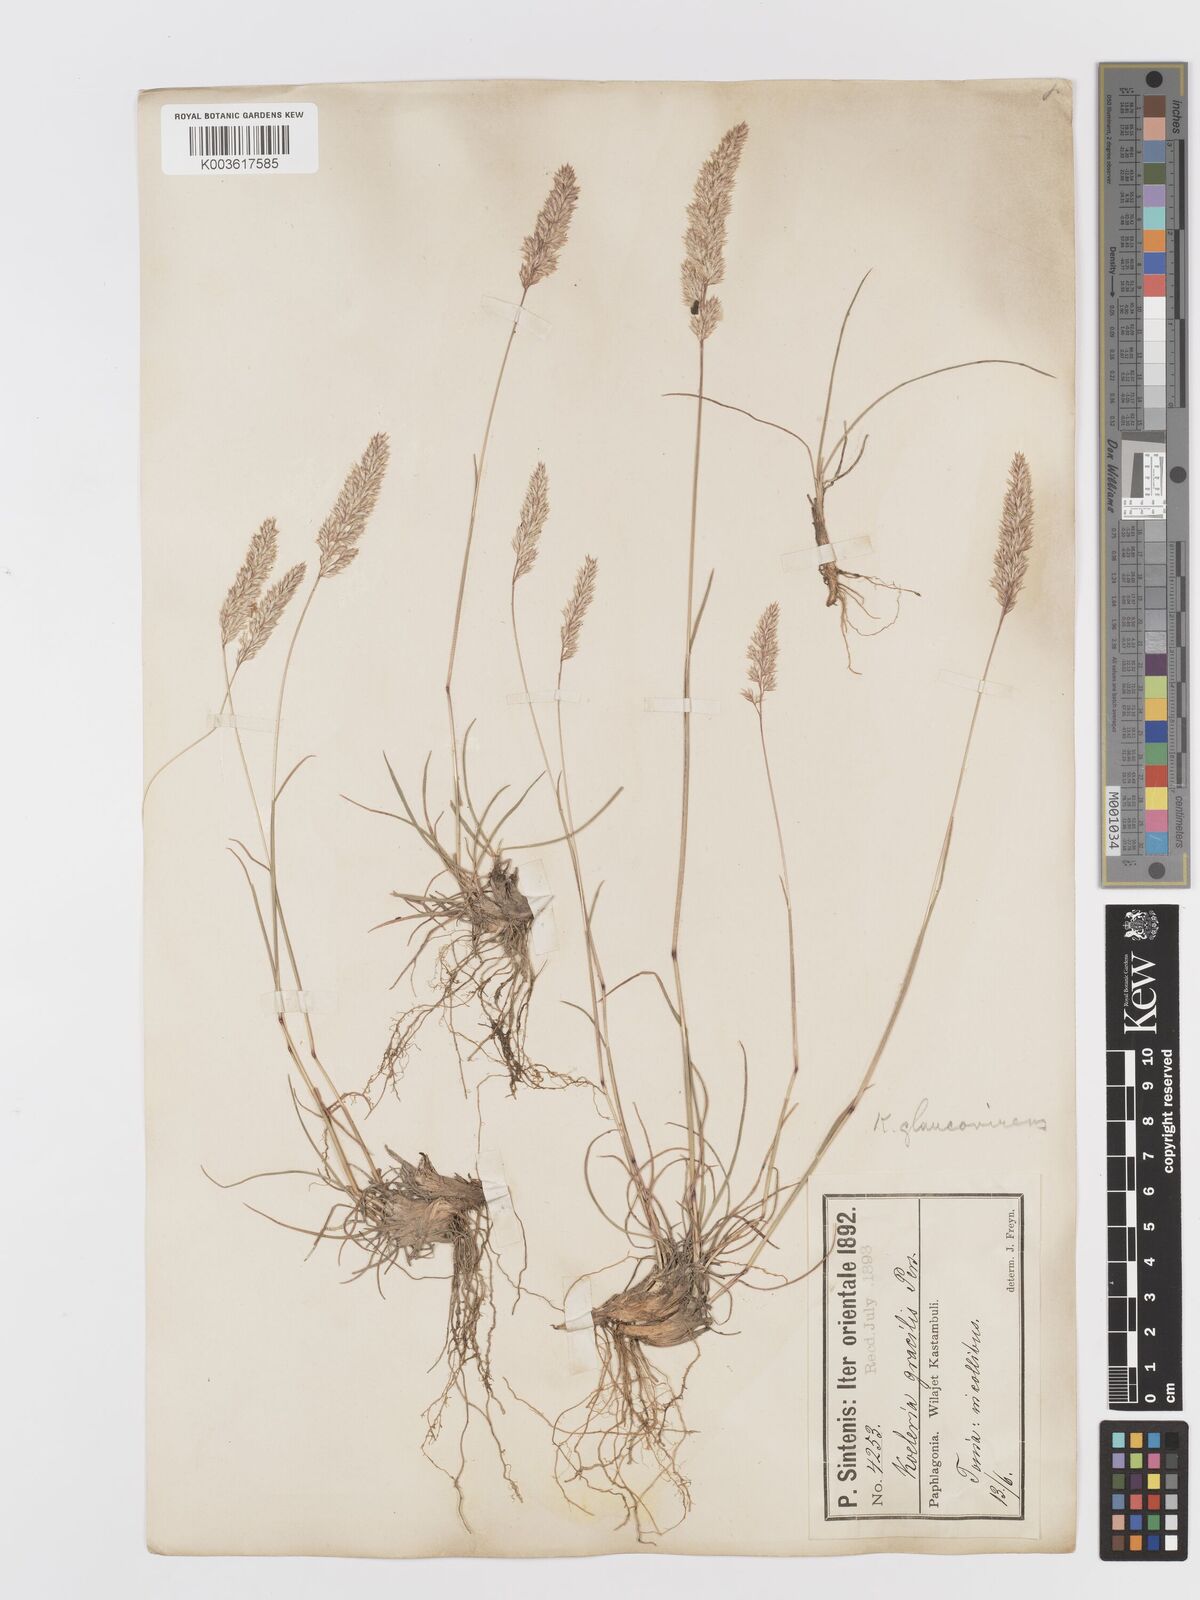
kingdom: Plantae
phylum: Tracheophyta
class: Liliopsida
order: Poales
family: Poaceae
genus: Koeleria
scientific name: Koeleria macrantha
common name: Crested hair-grass
